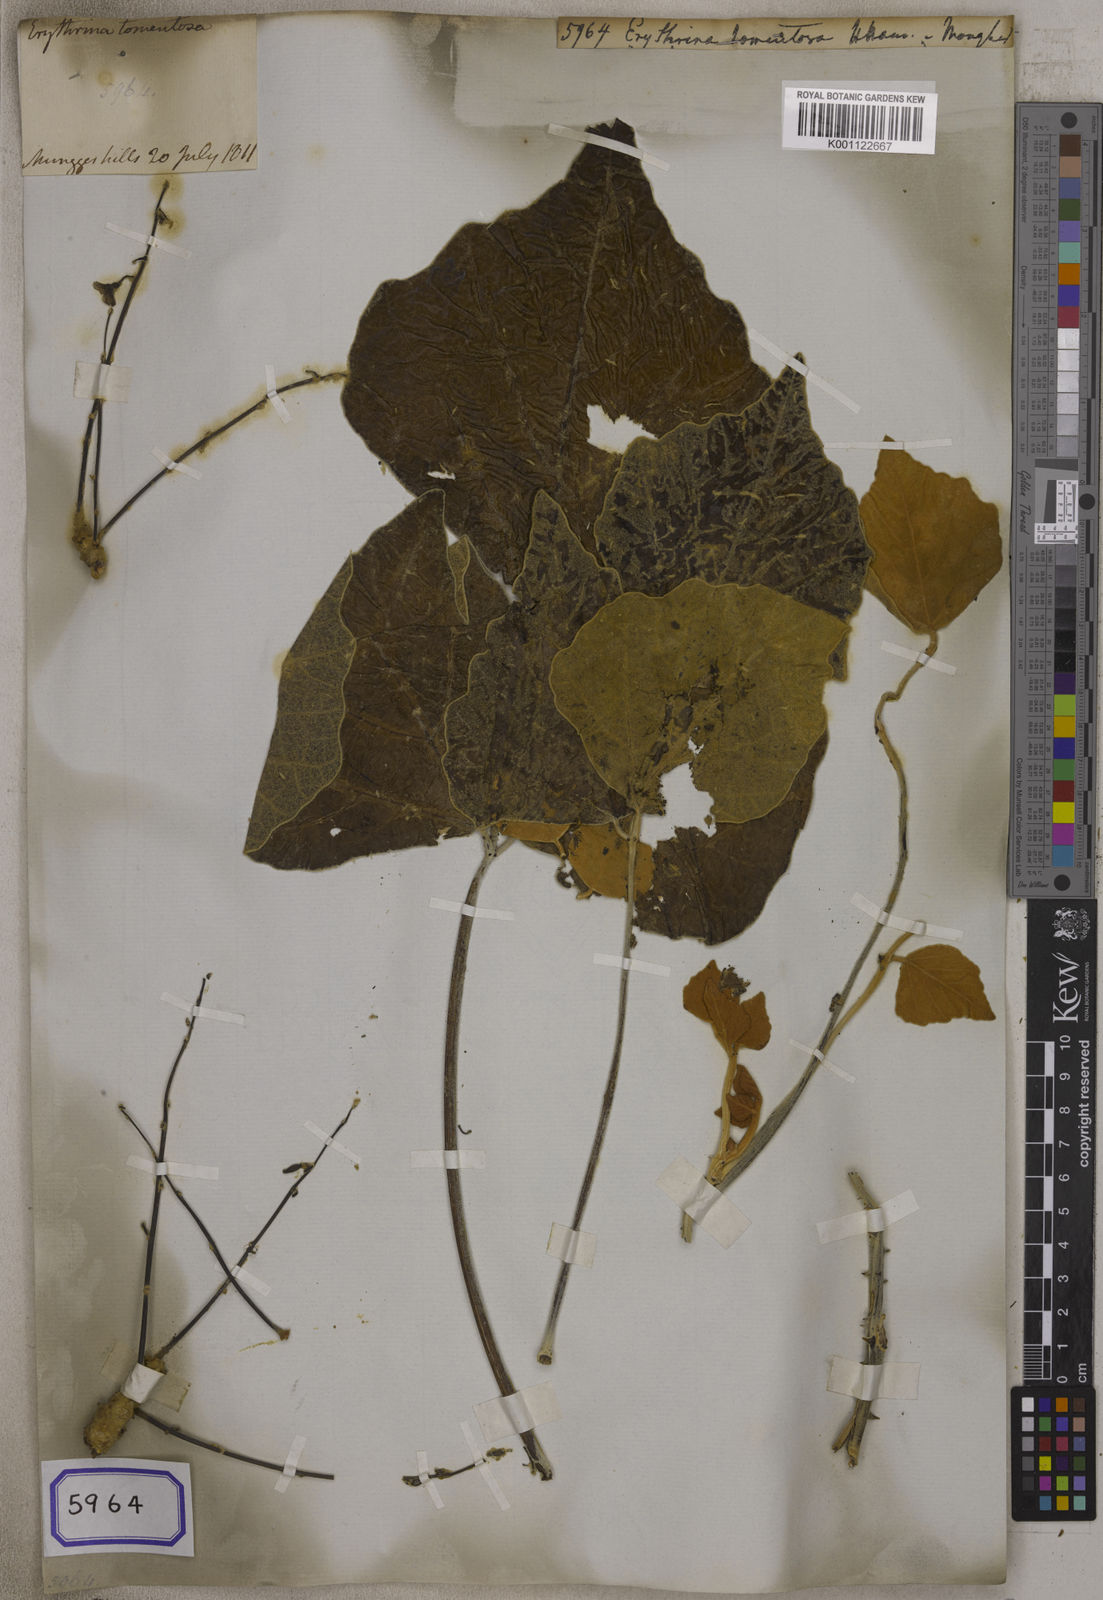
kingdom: Plantae
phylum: Tracheophyta
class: Magnoliopsida
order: Fabales
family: Fabaceae
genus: Erythrina
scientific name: Erythrina
